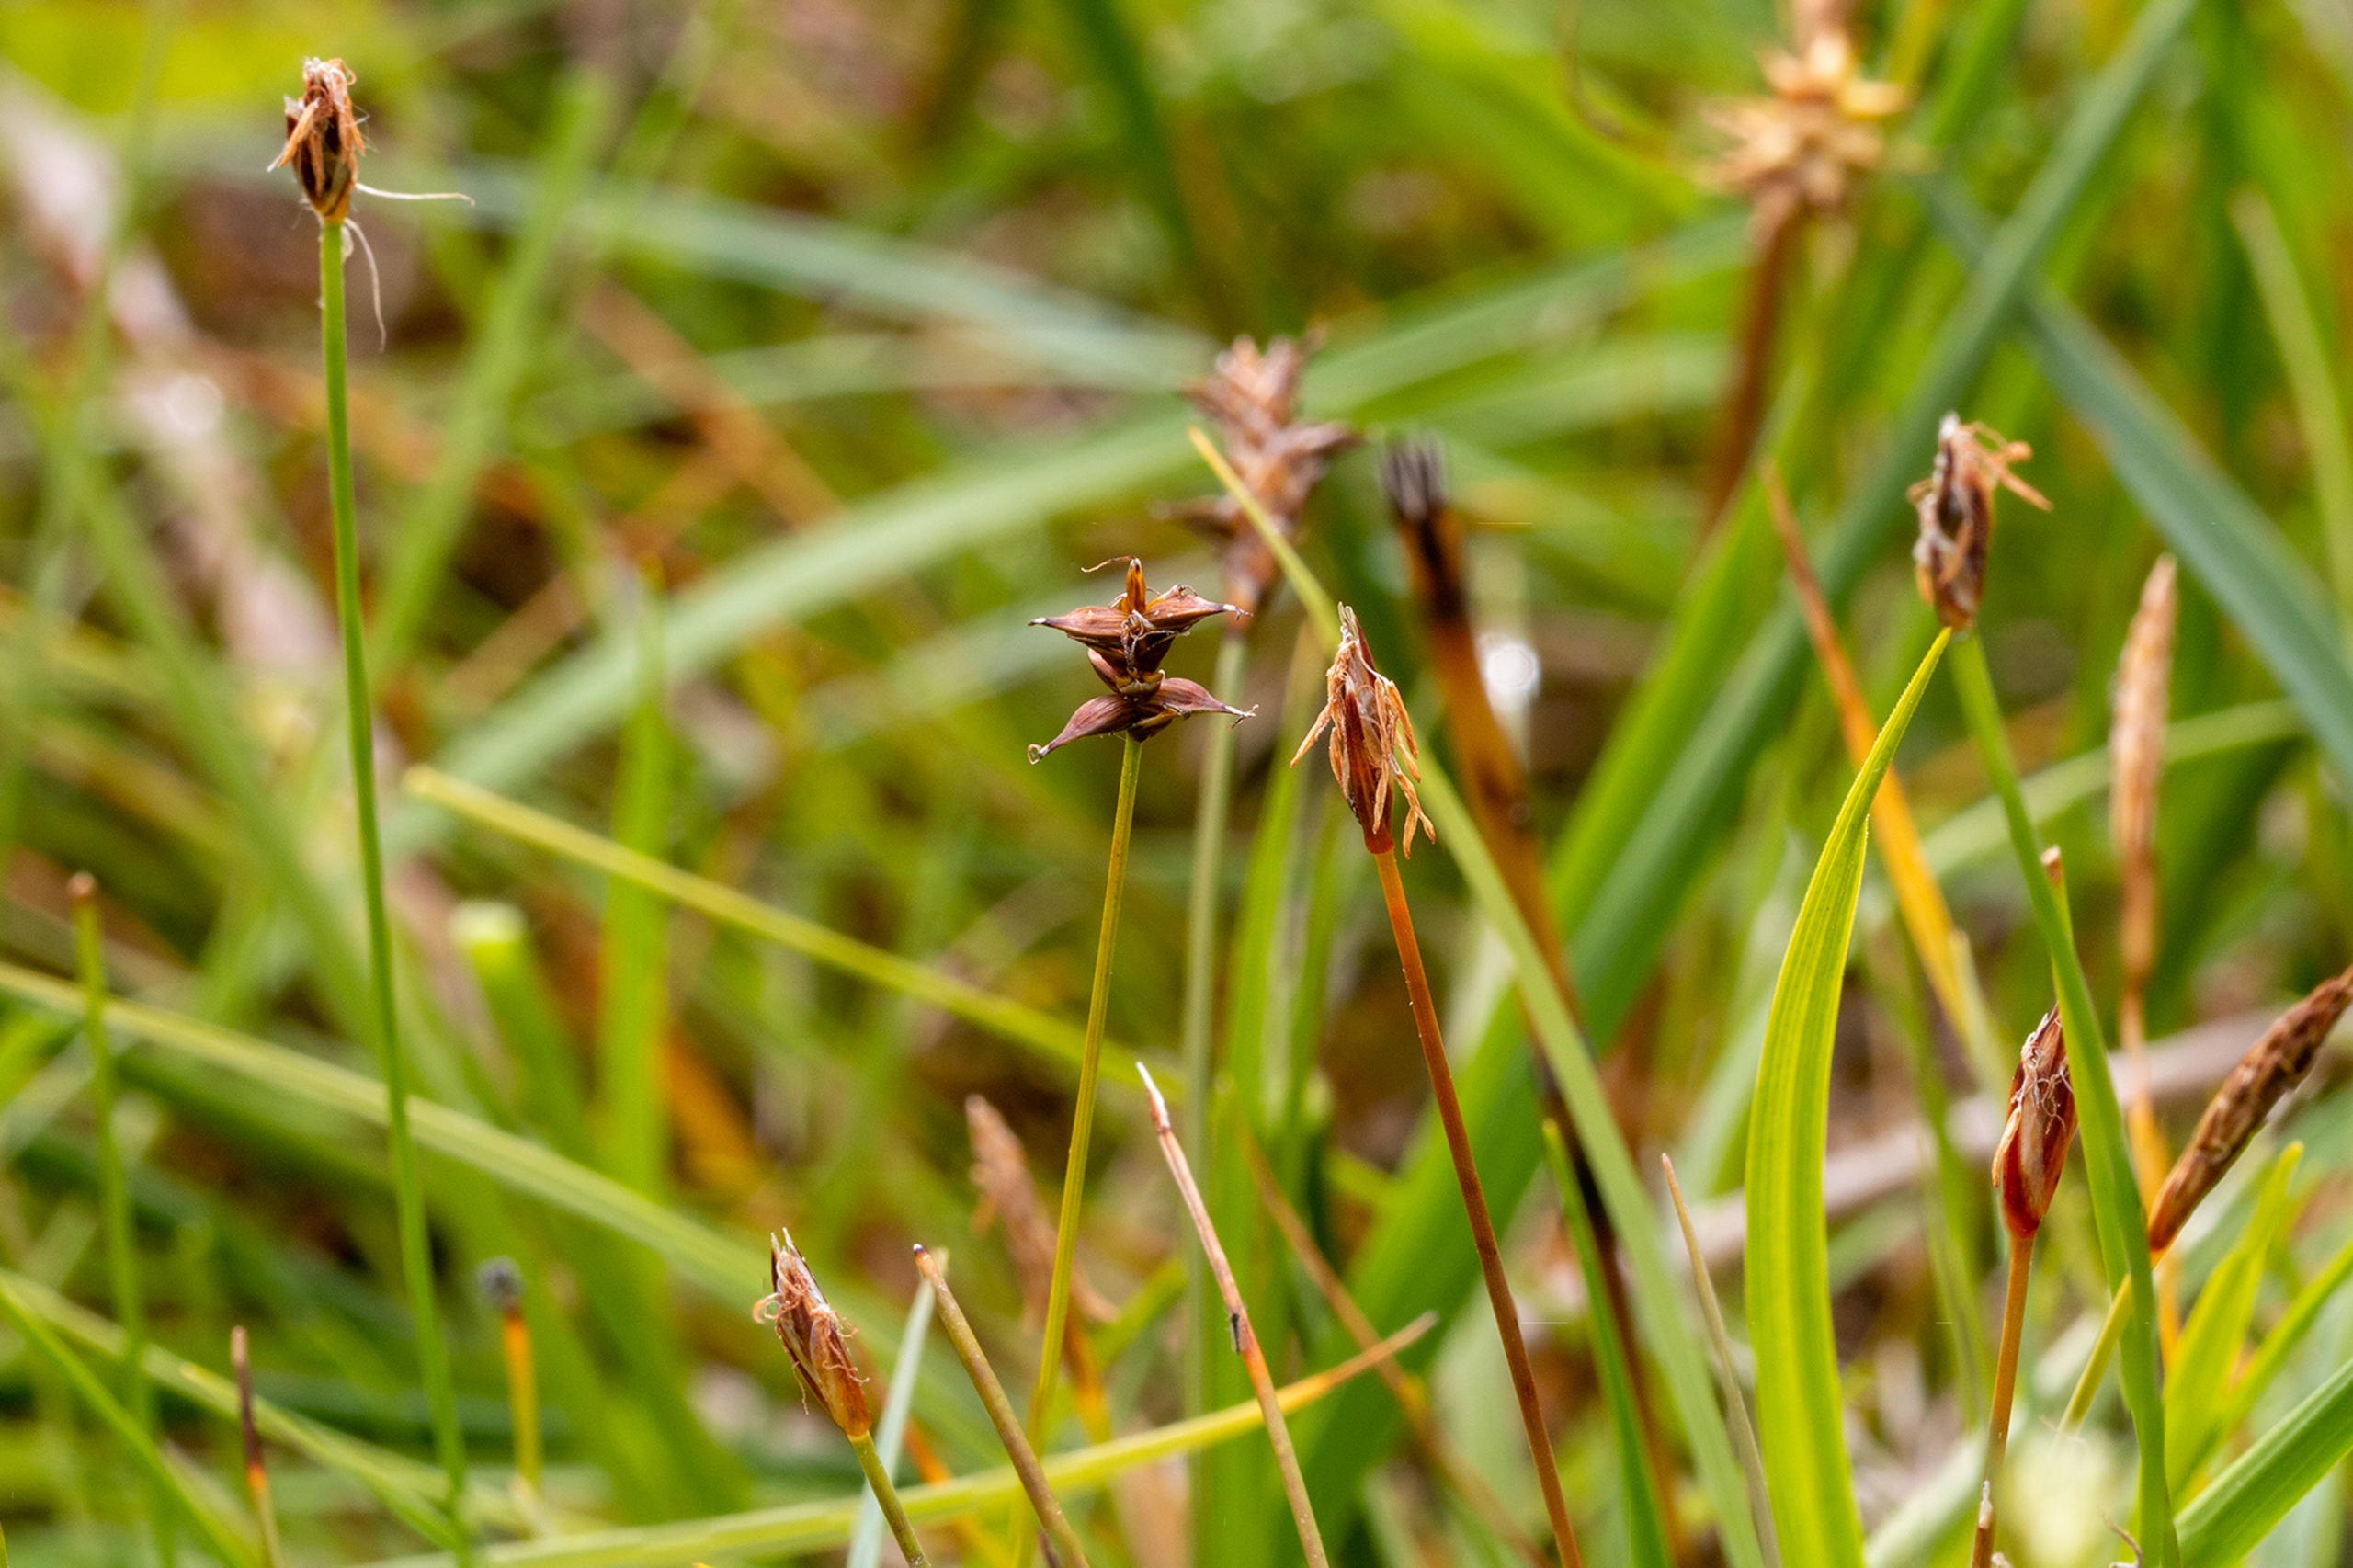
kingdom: Plantae
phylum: Tracheophyta
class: Liliopsida
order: Poales
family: Cyperaceae
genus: Carex
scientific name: Carex dioica
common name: Tvebo star
